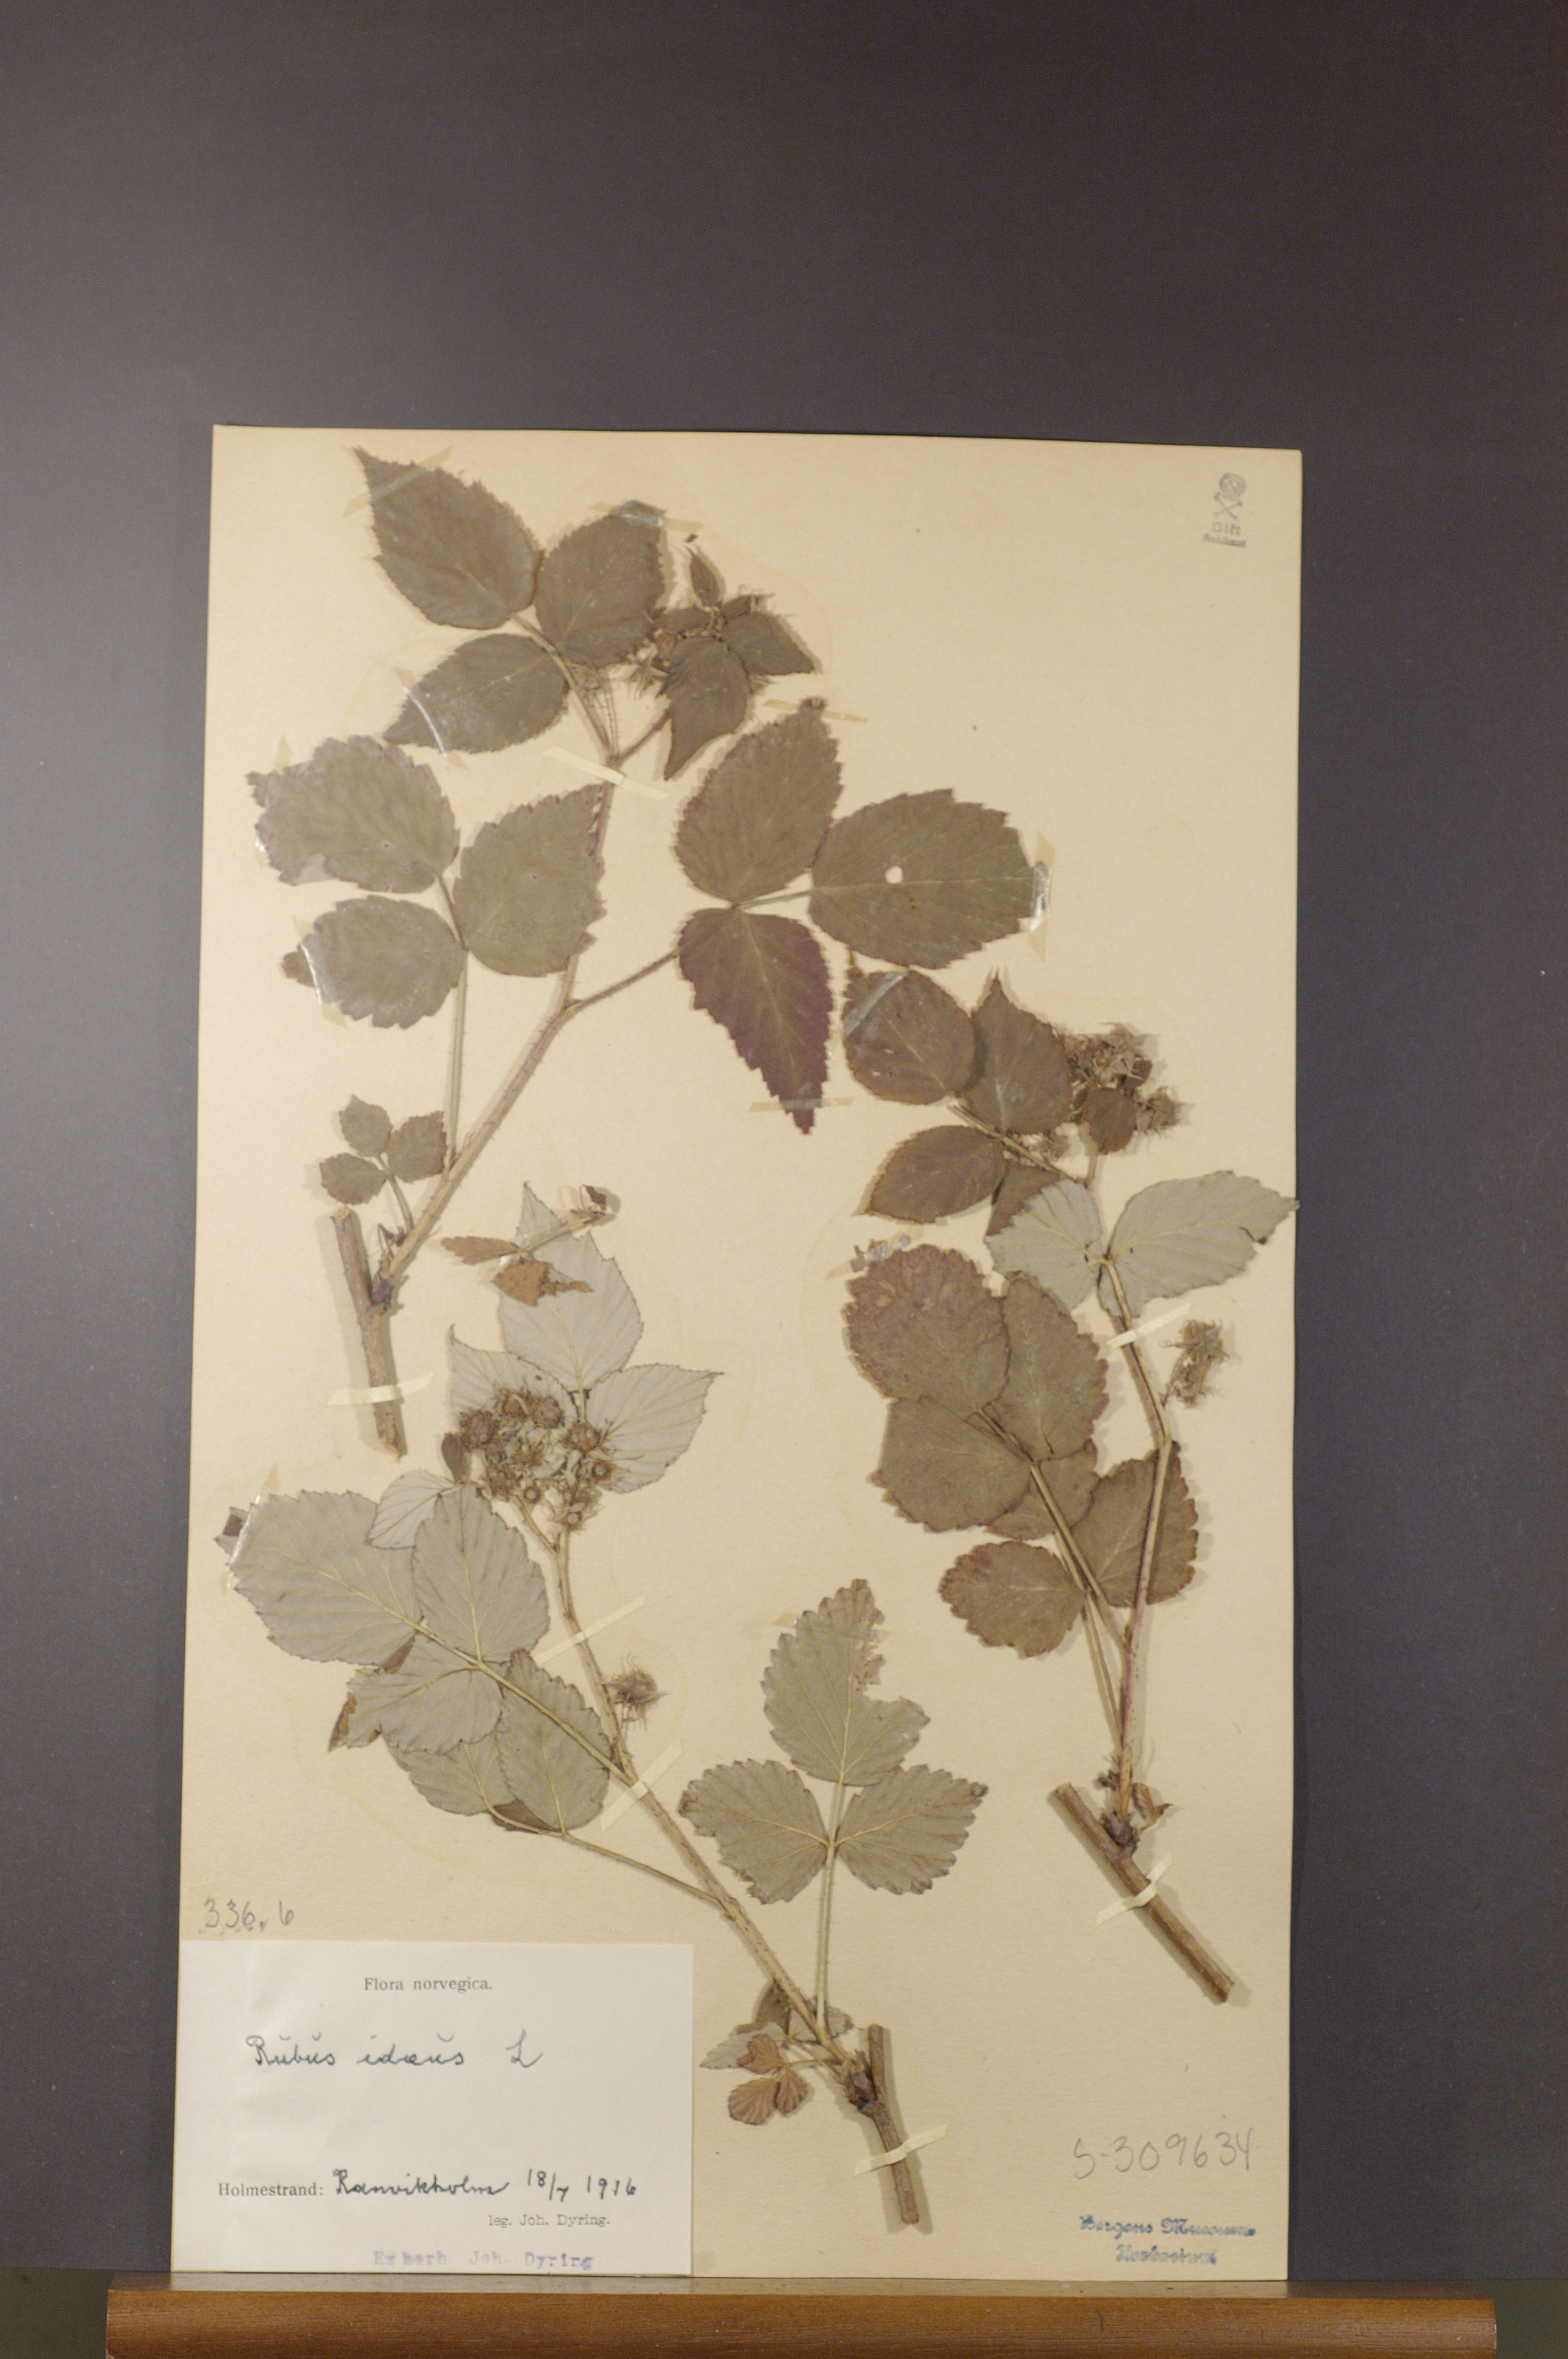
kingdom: Plantae
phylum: Tracheophyta
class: Magnoliopsida
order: Rosales
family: Rosaceae
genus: Rubus
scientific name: Rubus idaeus
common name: Raspberry
